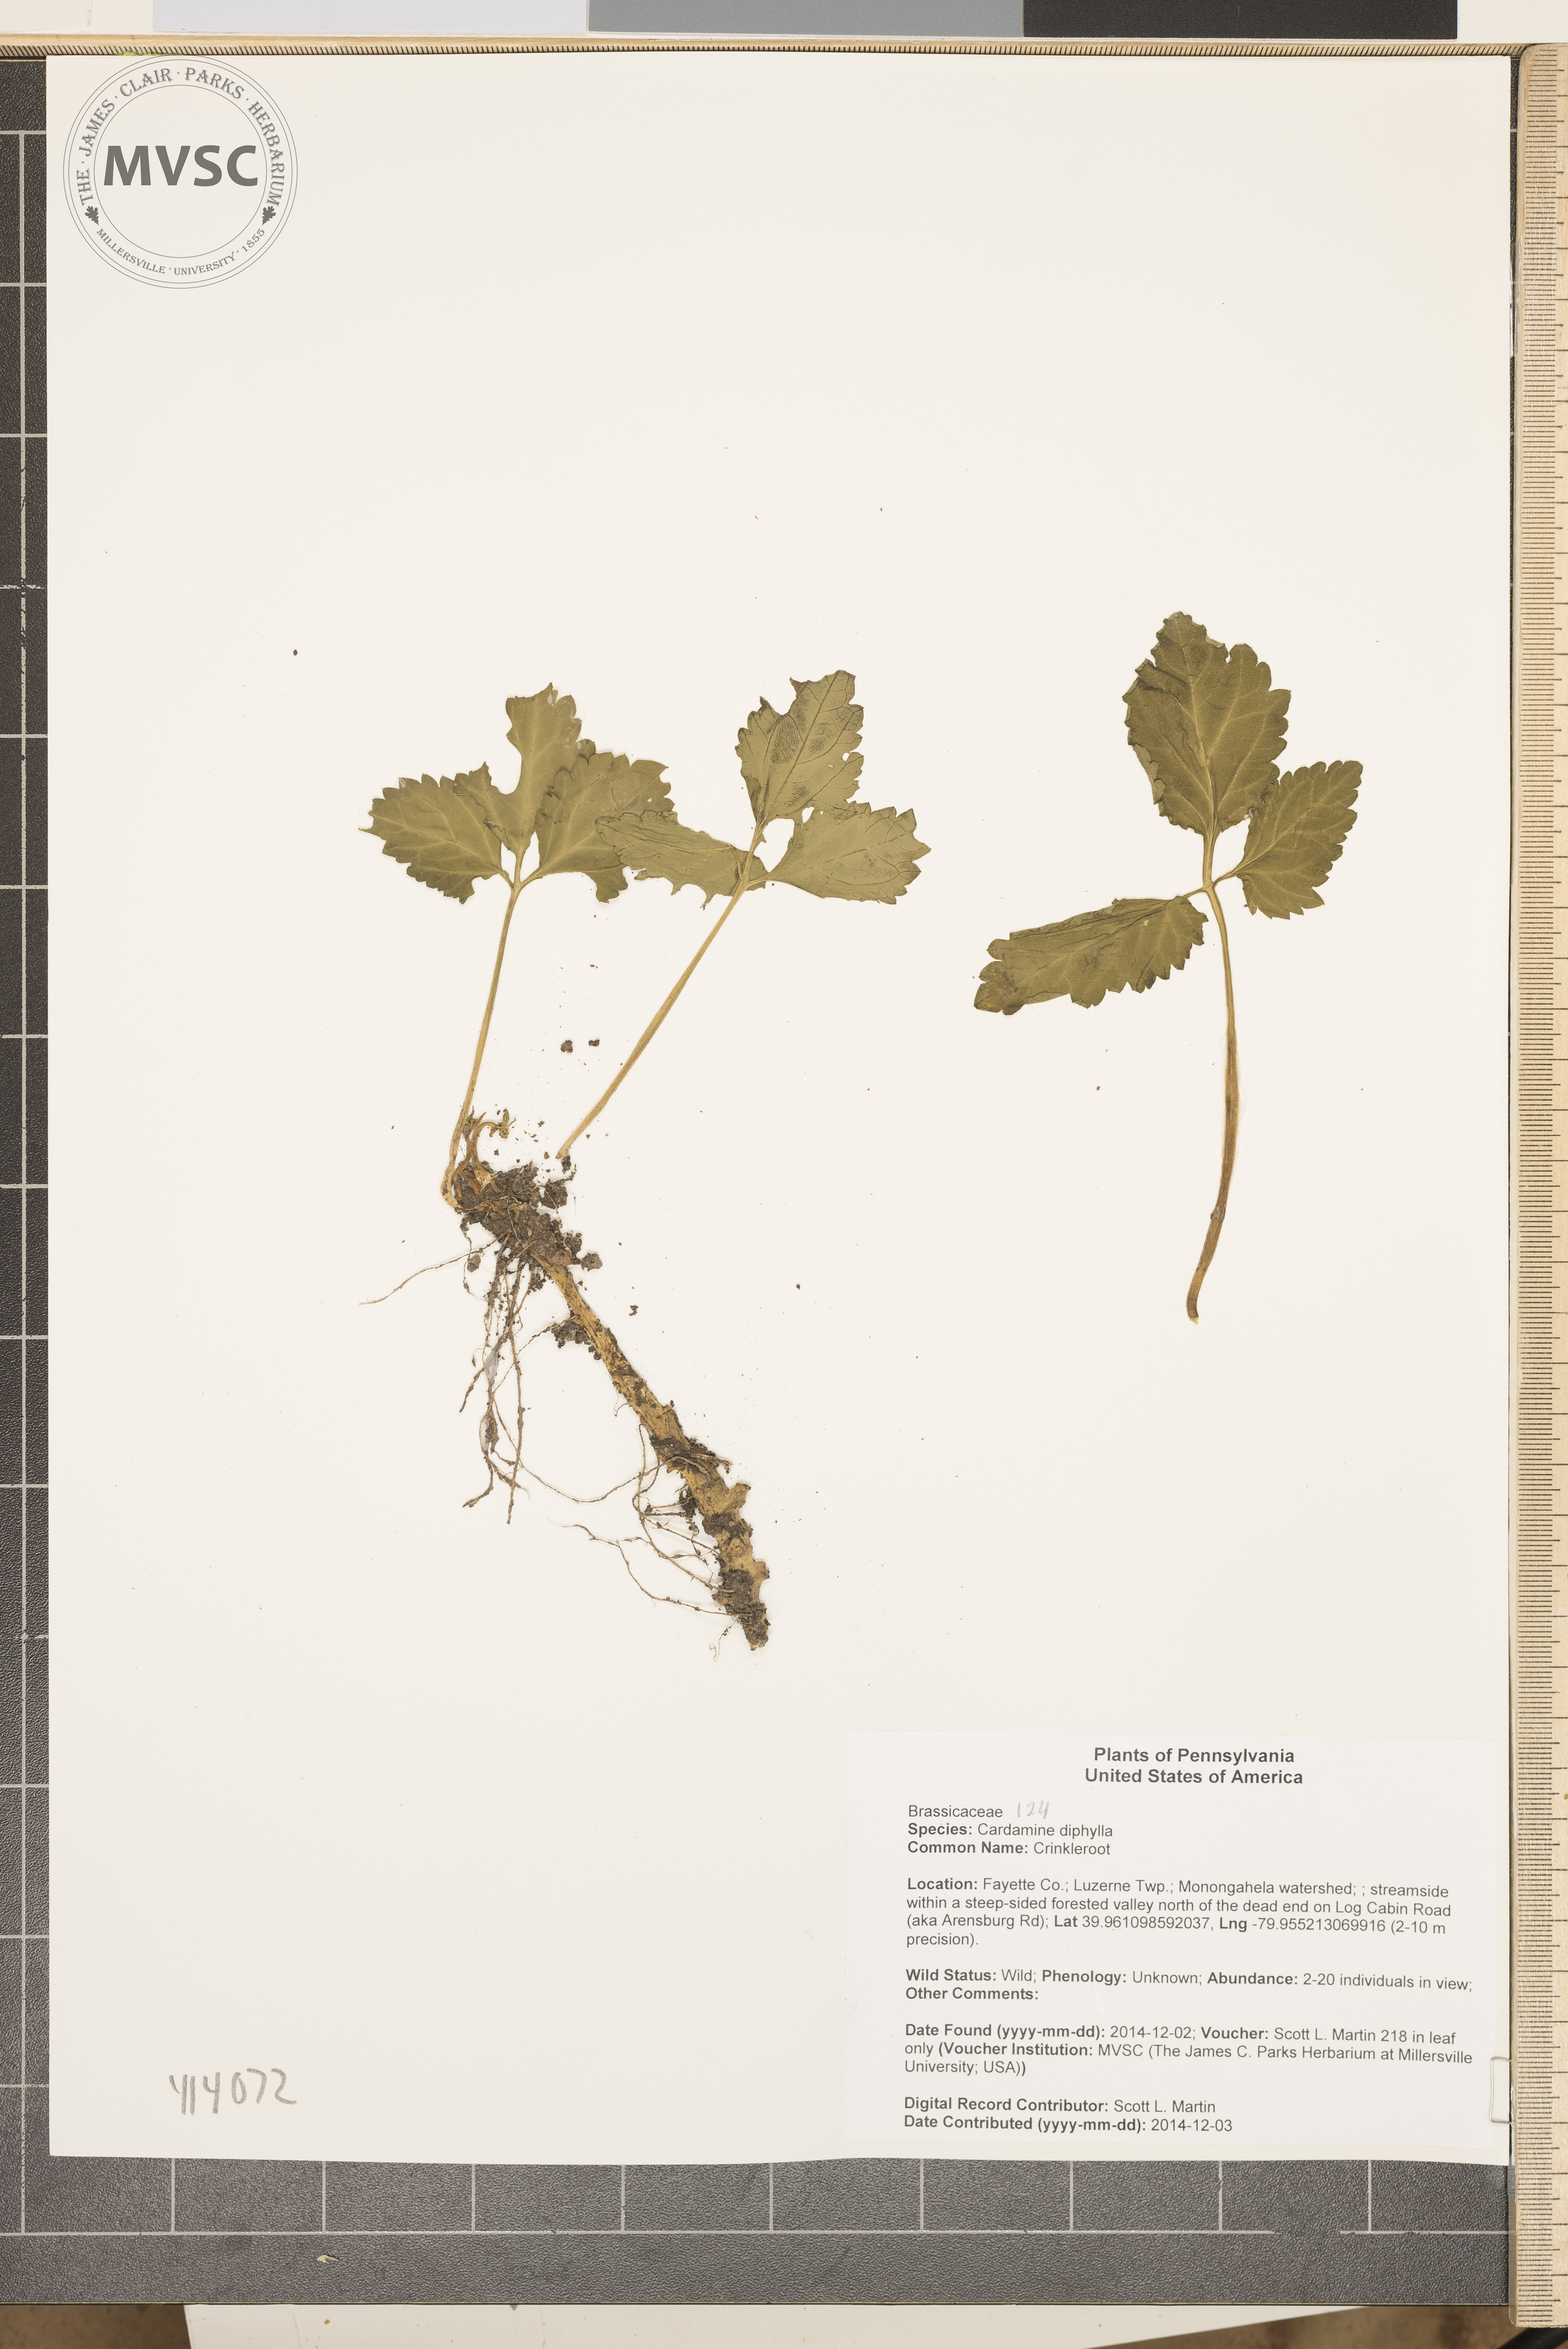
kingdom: Plantae
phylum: Tracheophyta
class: Magnoliopsida
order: Brassicales
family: Brassicaceae
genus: Cardamine
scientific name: Cardamine diphylla
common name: Crinkleroot
